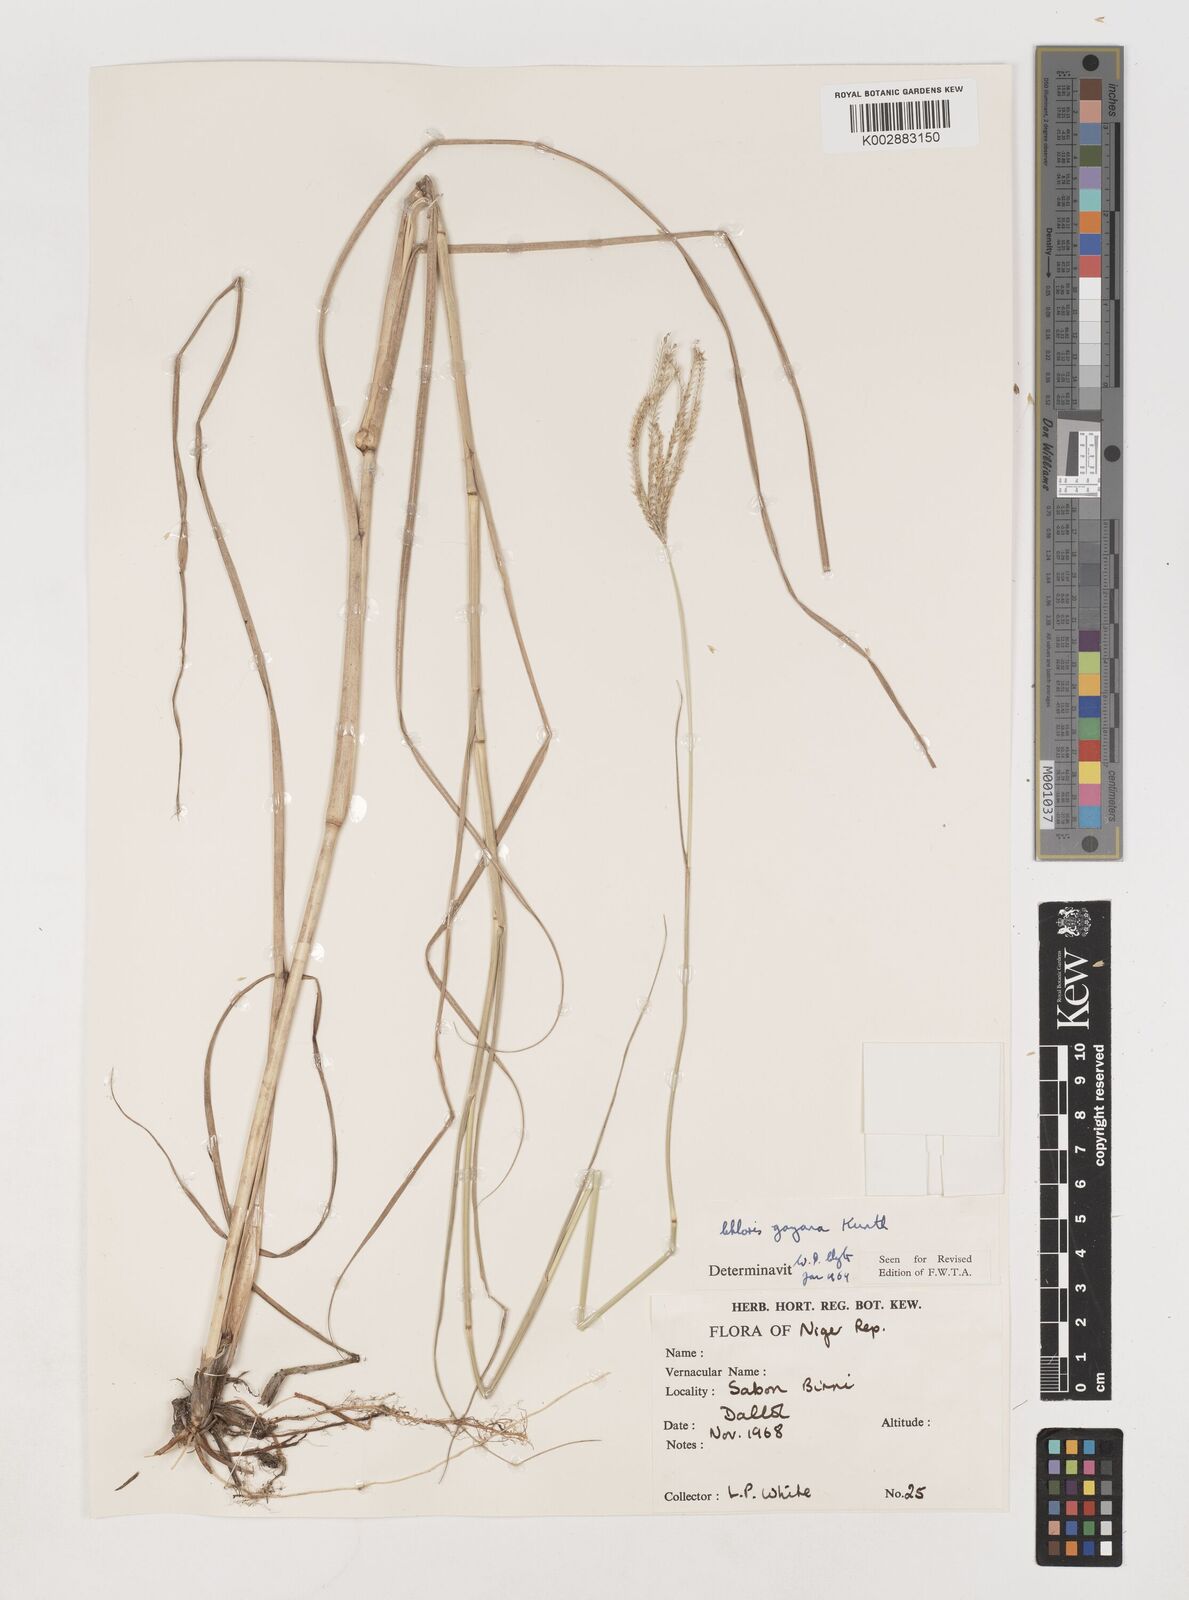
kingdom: Plantae
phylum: Tracheophyta
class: Liliopsida
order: Poales
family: Poaceae
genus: Chloris
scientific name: Chloris gayana
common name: Rhodes grass
